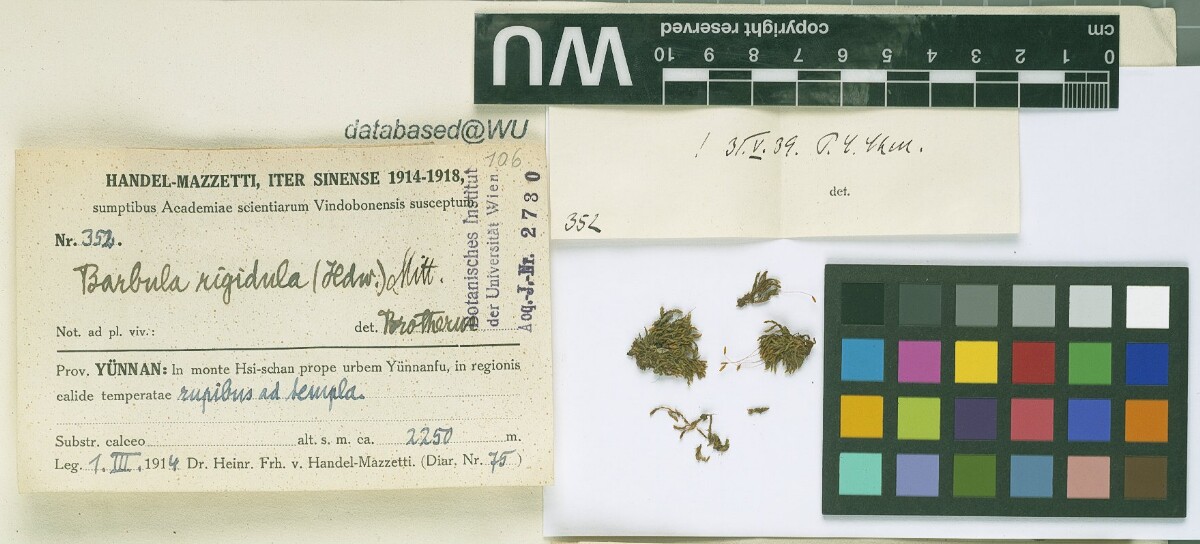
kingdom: Plantae
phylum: Bryophyta
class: Bryopsida
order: Pottiales
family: Pottiaceae
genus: Didymodon
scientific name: Didymodon rigidulus
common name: Rigid beard-moss
